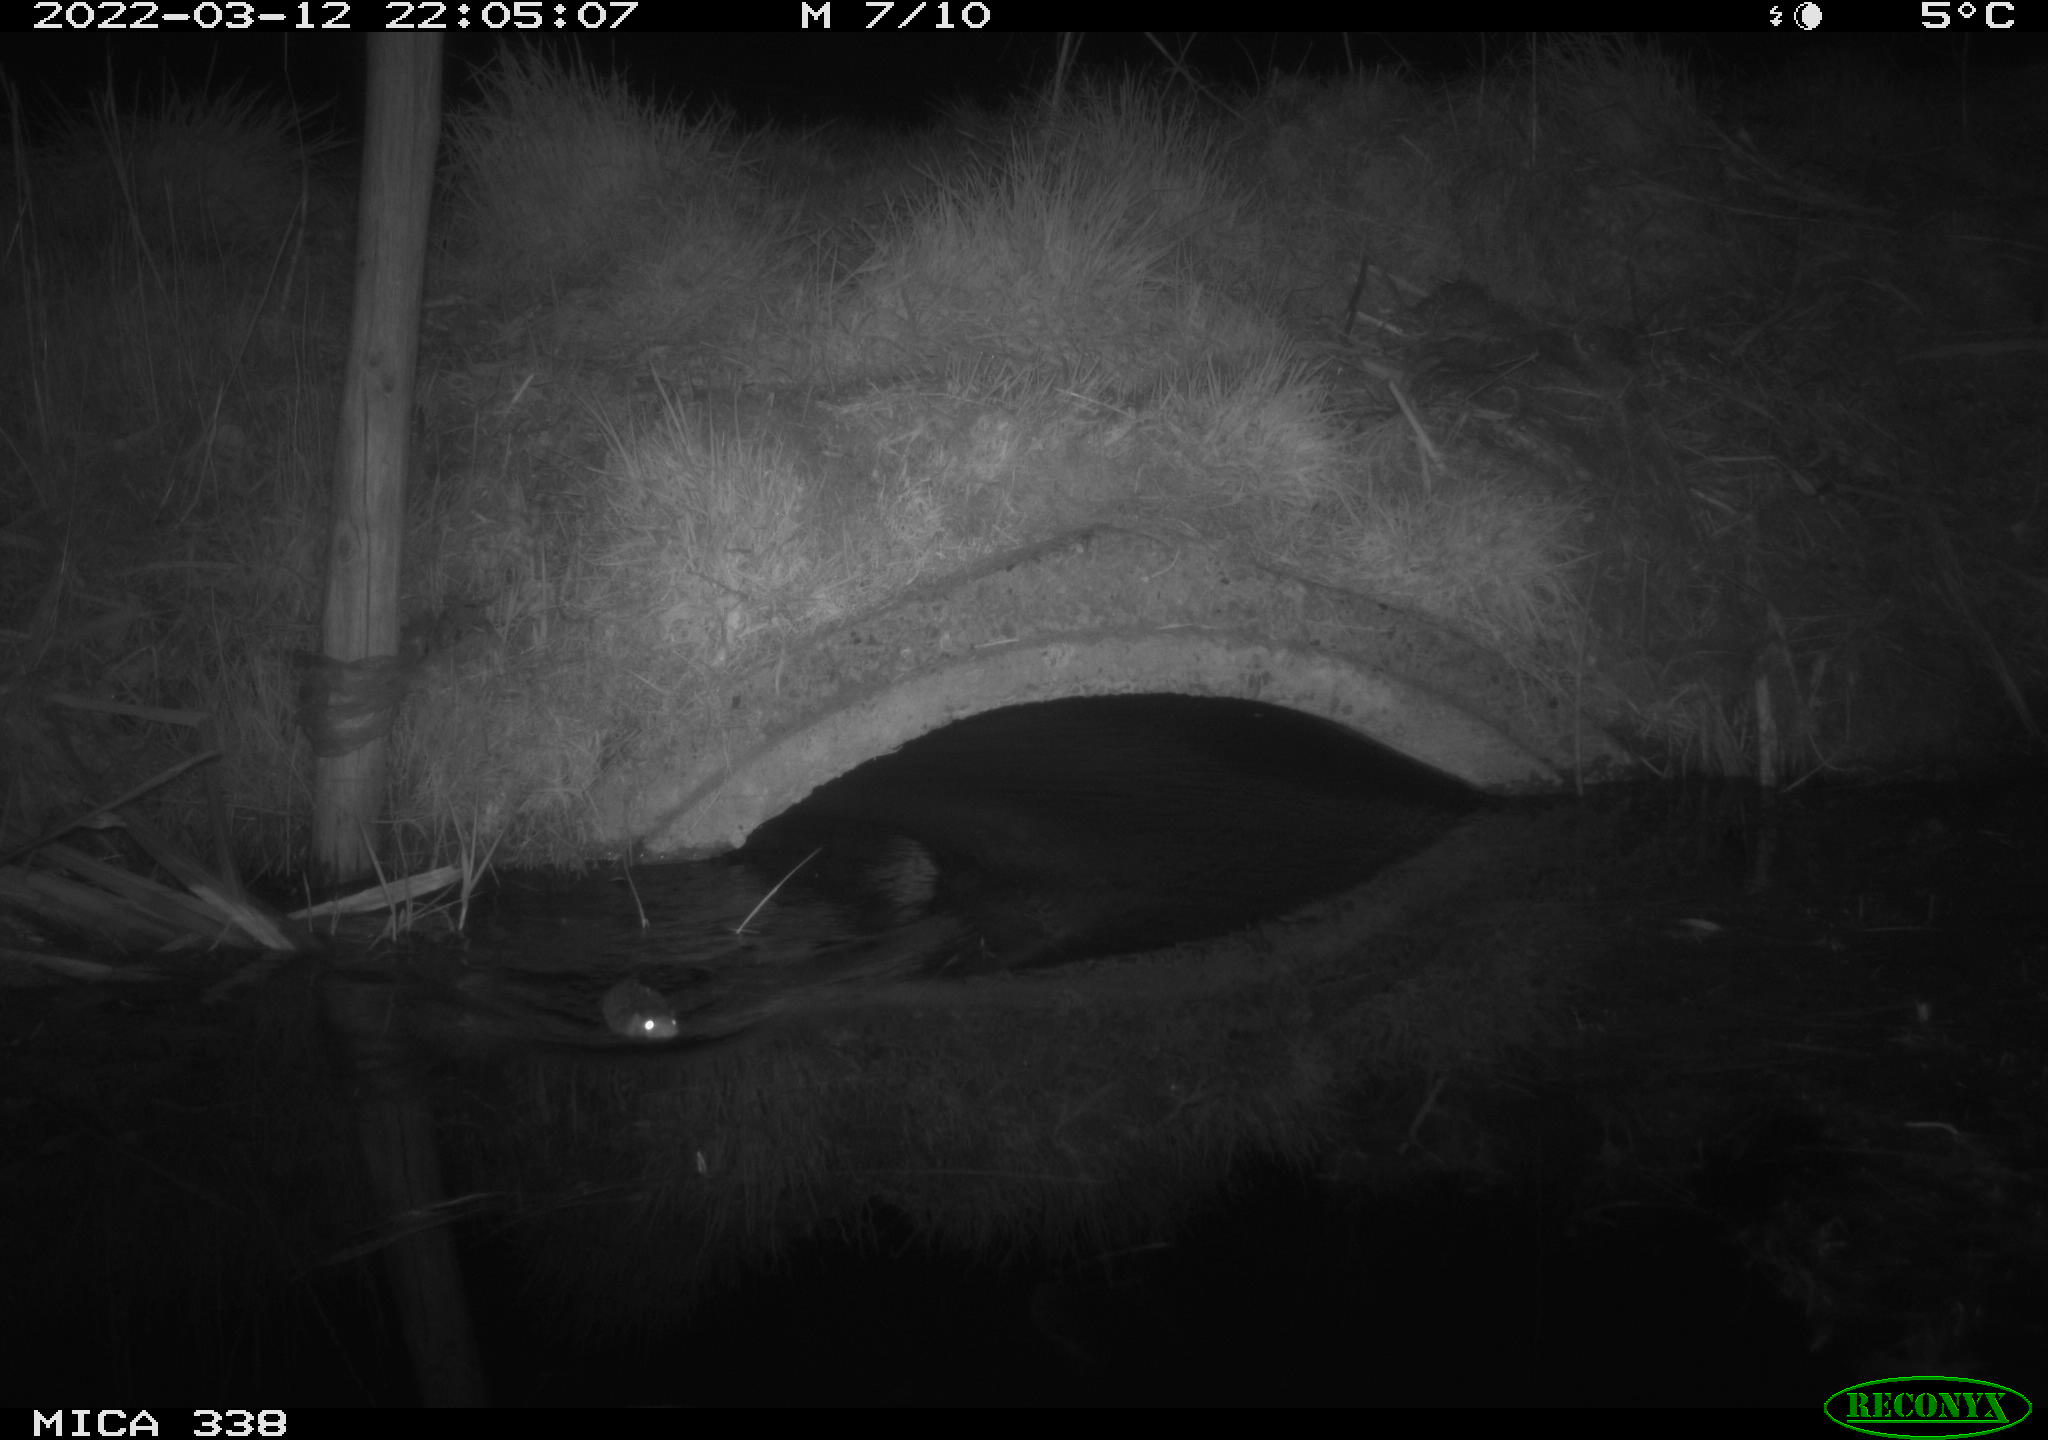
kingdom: Animalia
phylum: Chordata
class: Mammalia
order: Rodentia
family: Muridae
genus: Rattus
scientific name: Rattus norvegicus
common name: Brown rat
